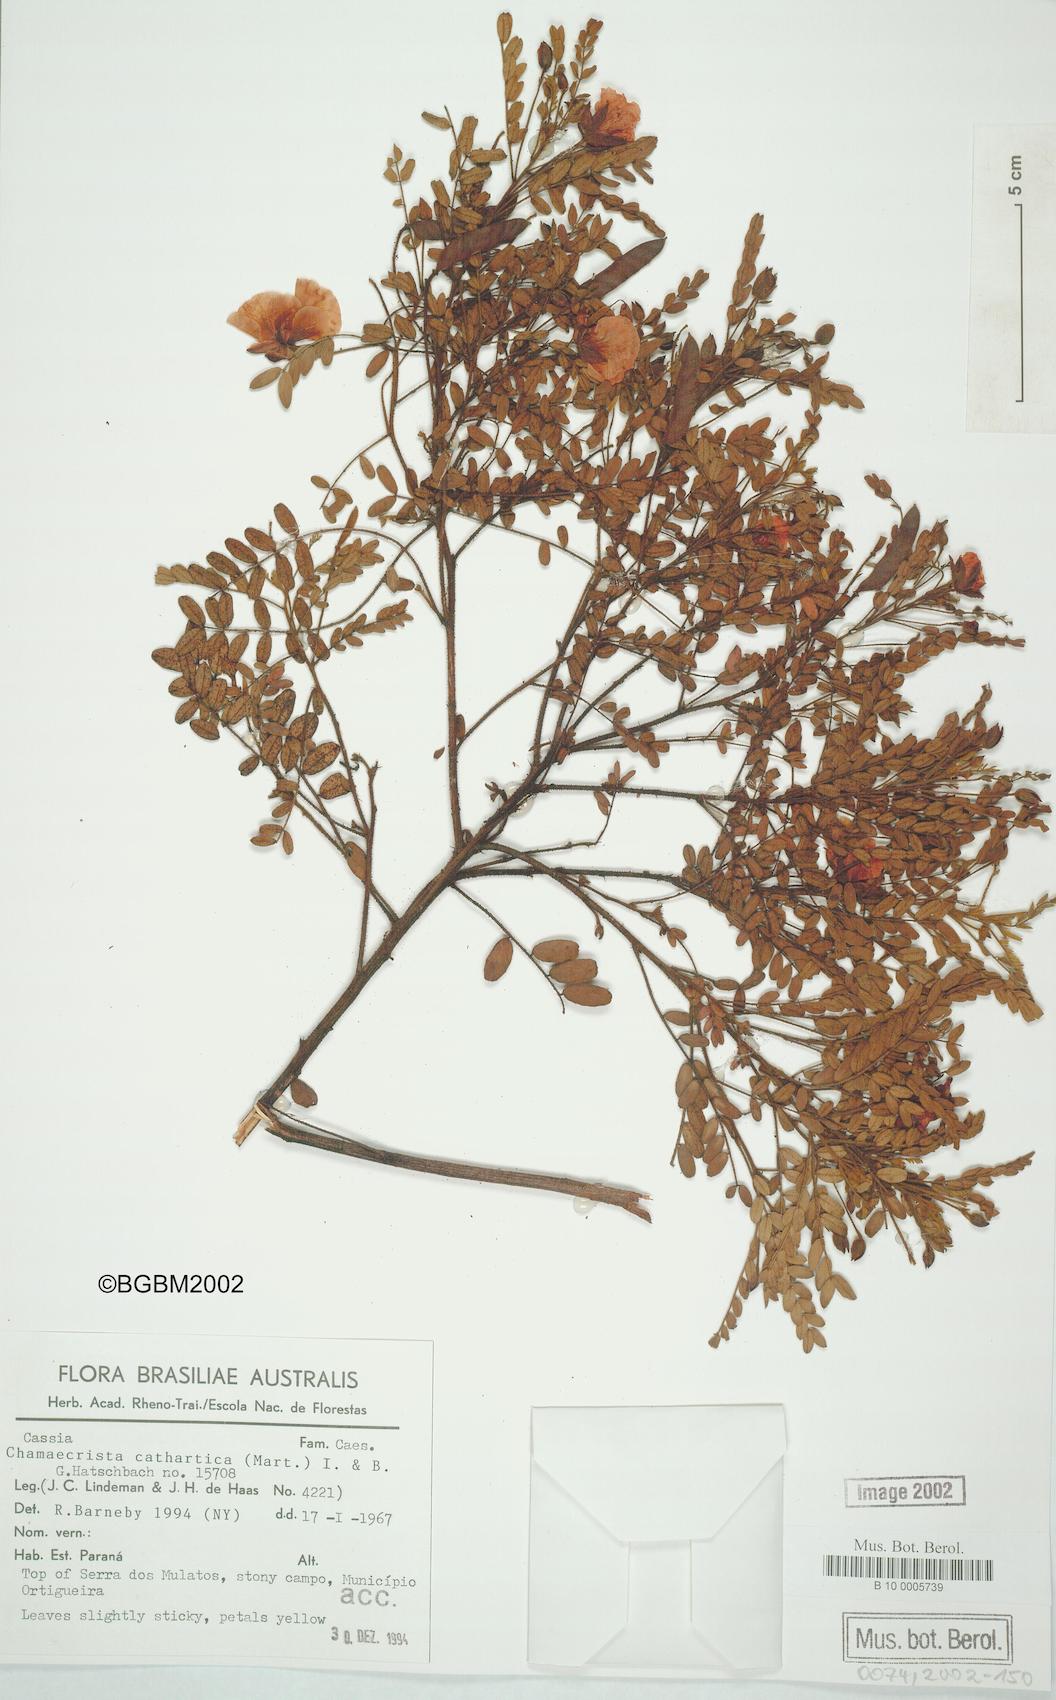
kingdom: Plantae
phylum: Tracheophyta
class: Magnoliopsida
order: Fabales
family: Fabaceae
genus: Chamaecrista
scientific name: Chamaecrista cathartica
